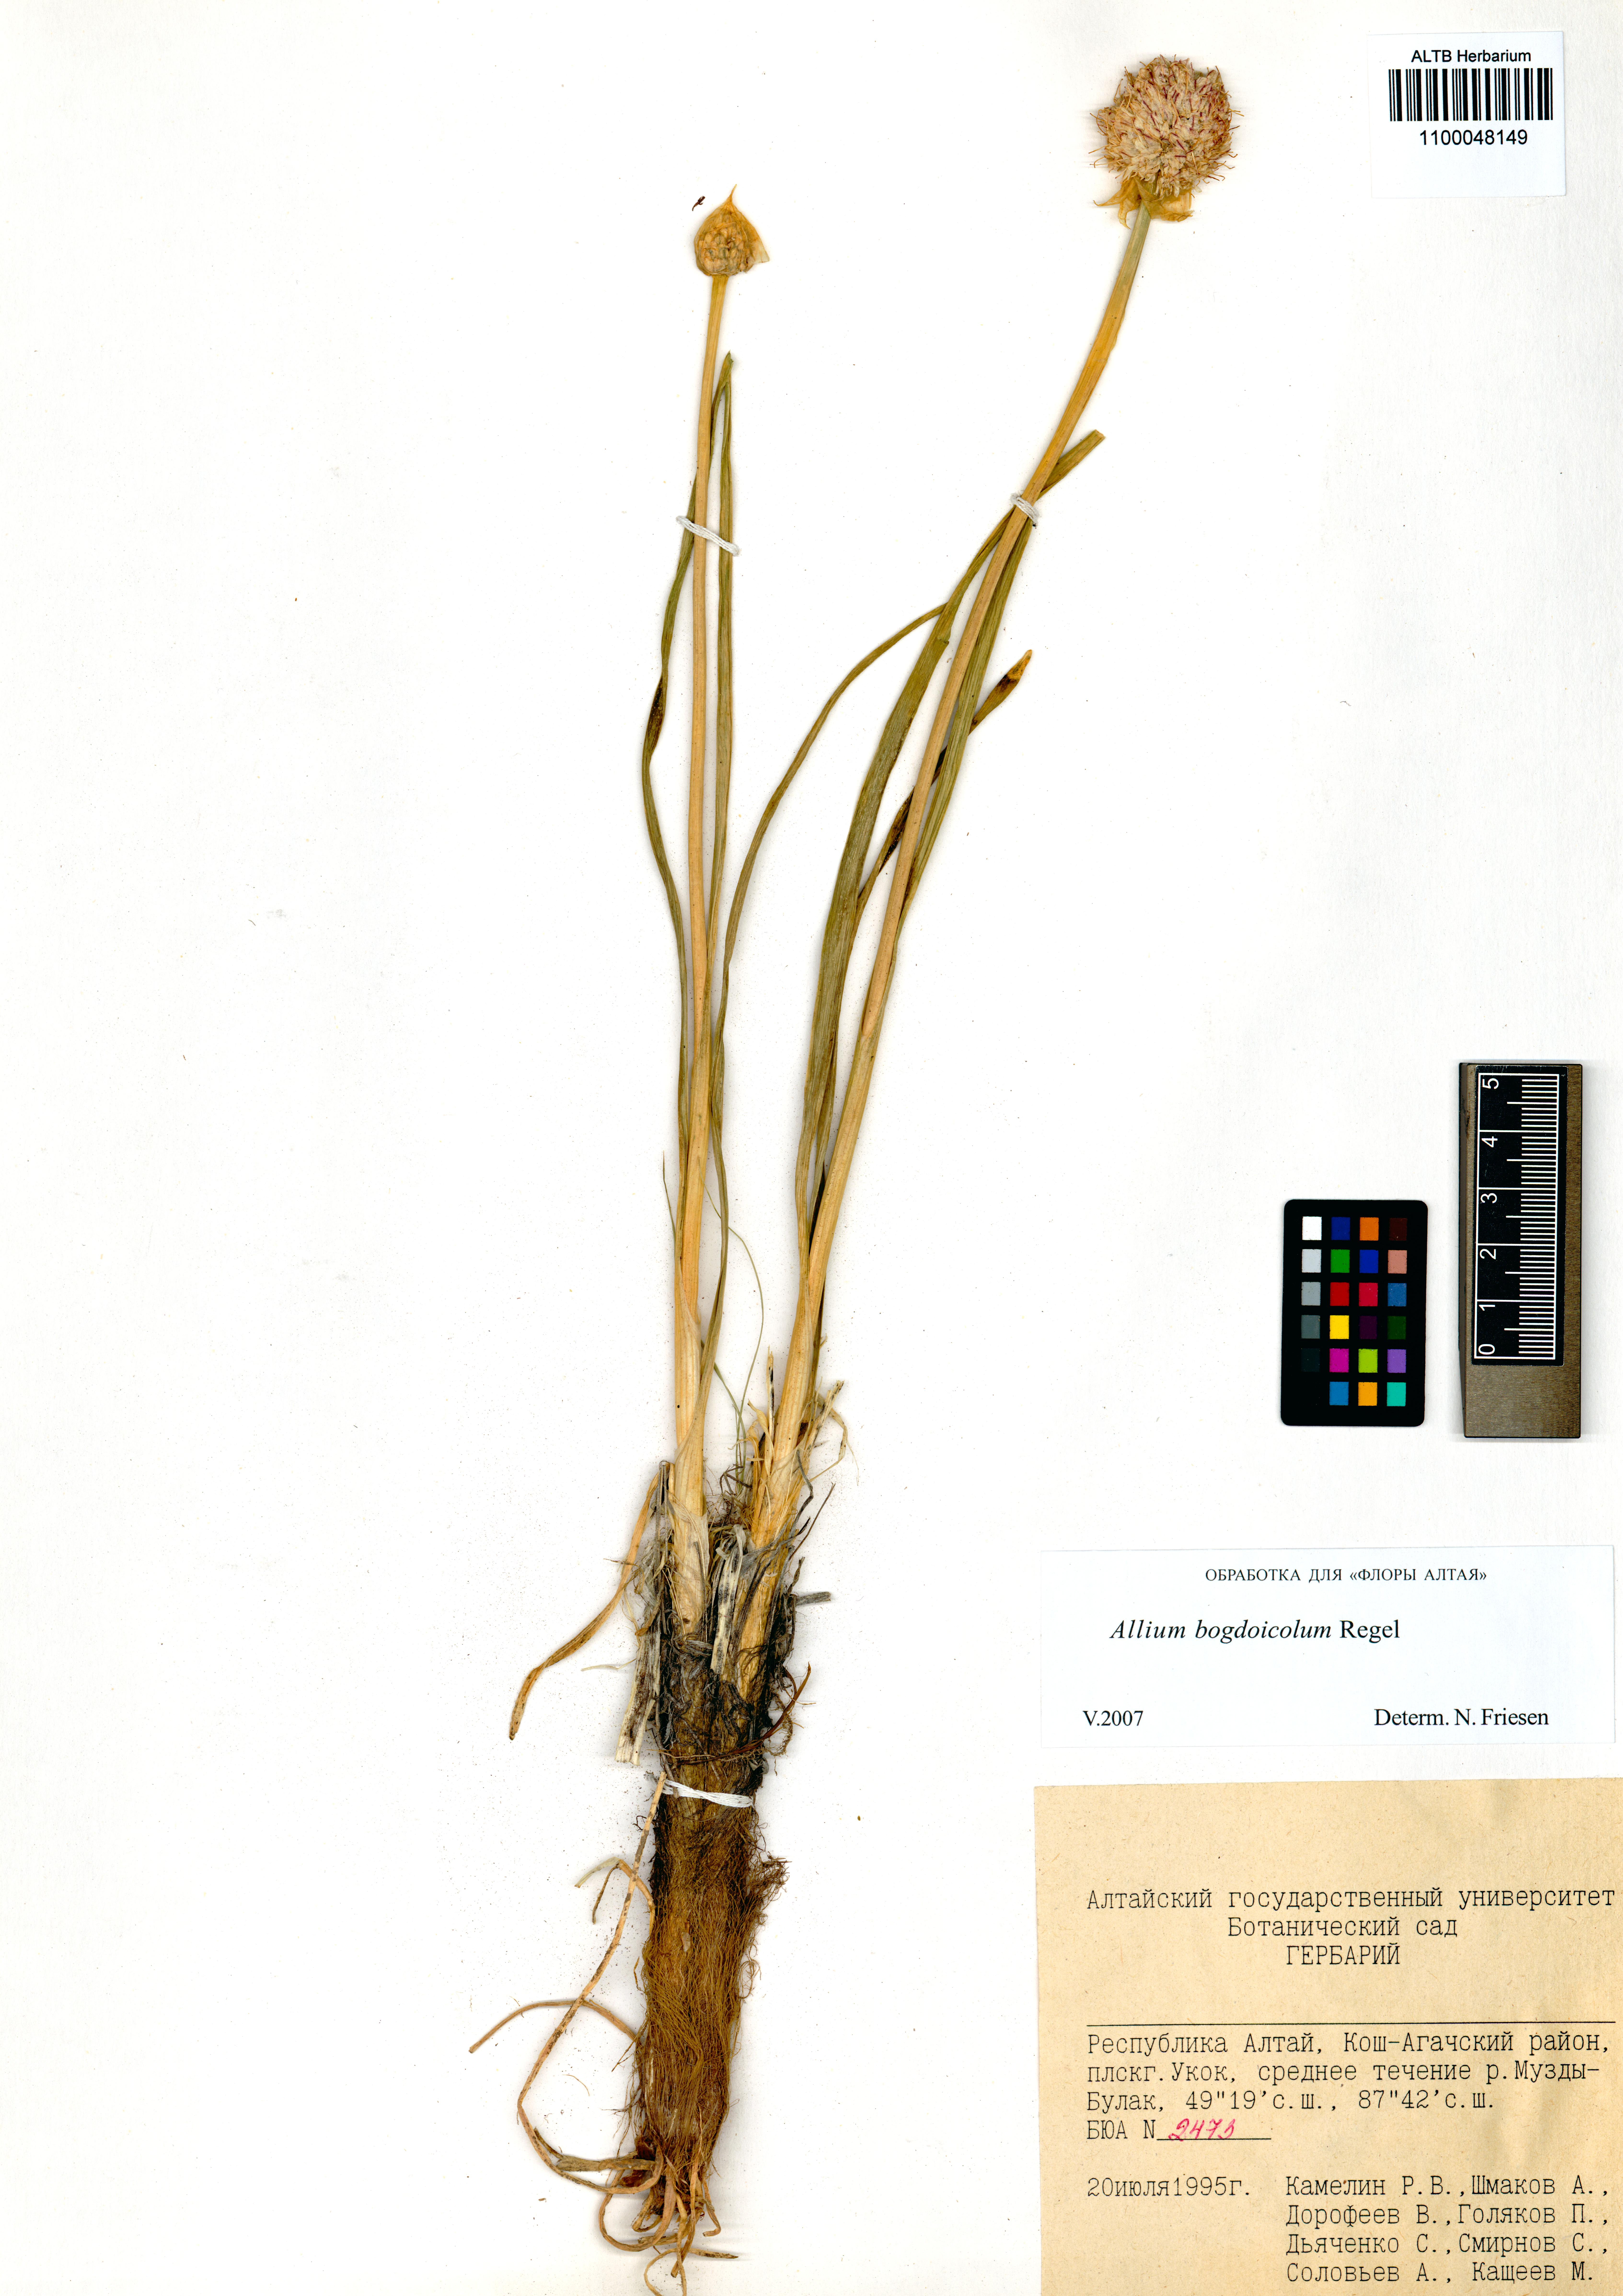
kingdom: Plantae
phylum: Tracheophyta
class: Liliopsida
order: Asparagales
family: Amaryllidaceae
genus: Allium
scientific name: Allium schrenkii
